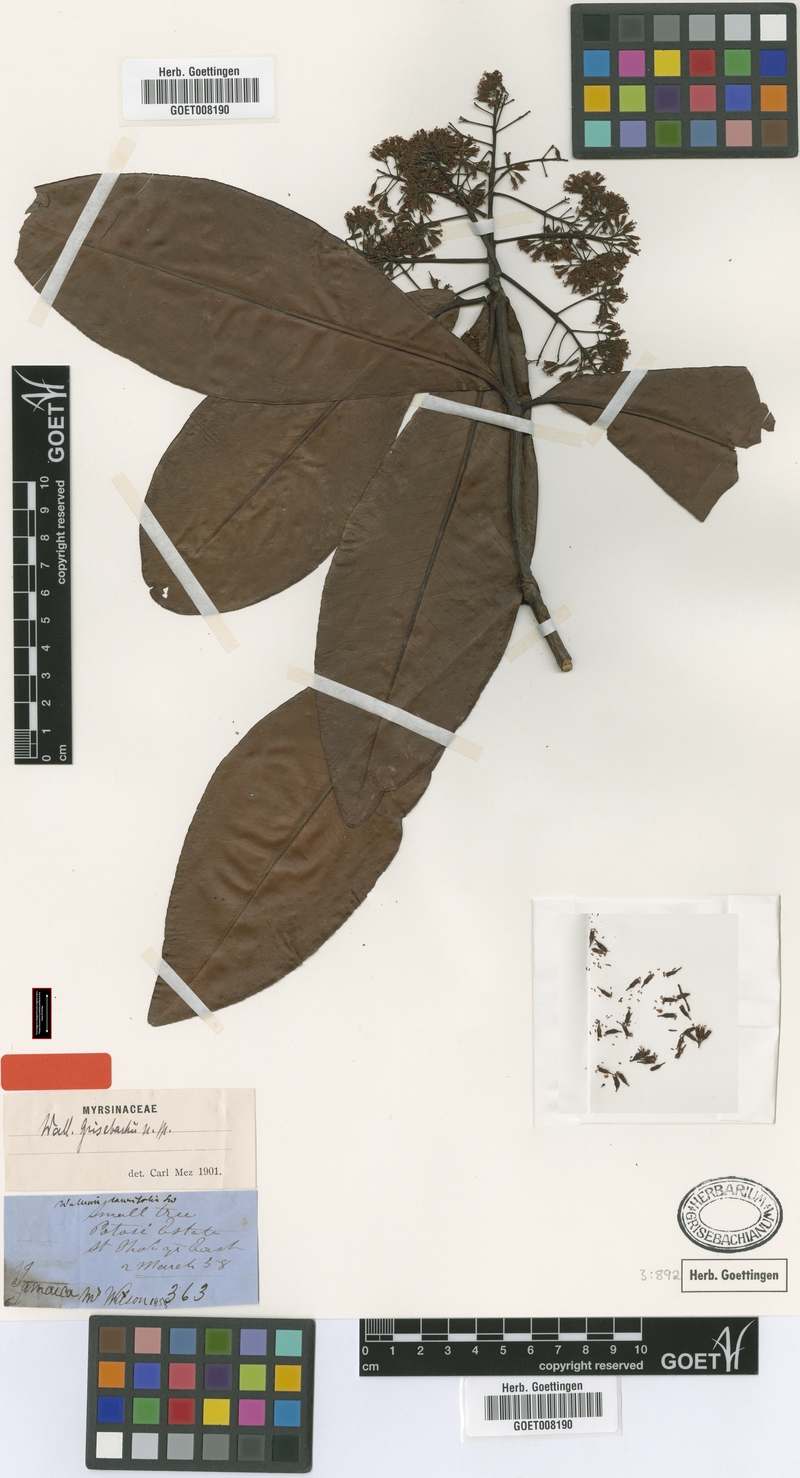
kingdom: Plantae
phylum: Tracheophyta
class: Magnoliopsida
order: Ericales
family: Primulaceae
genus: Wallenia
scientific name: Wallenia elliptica
